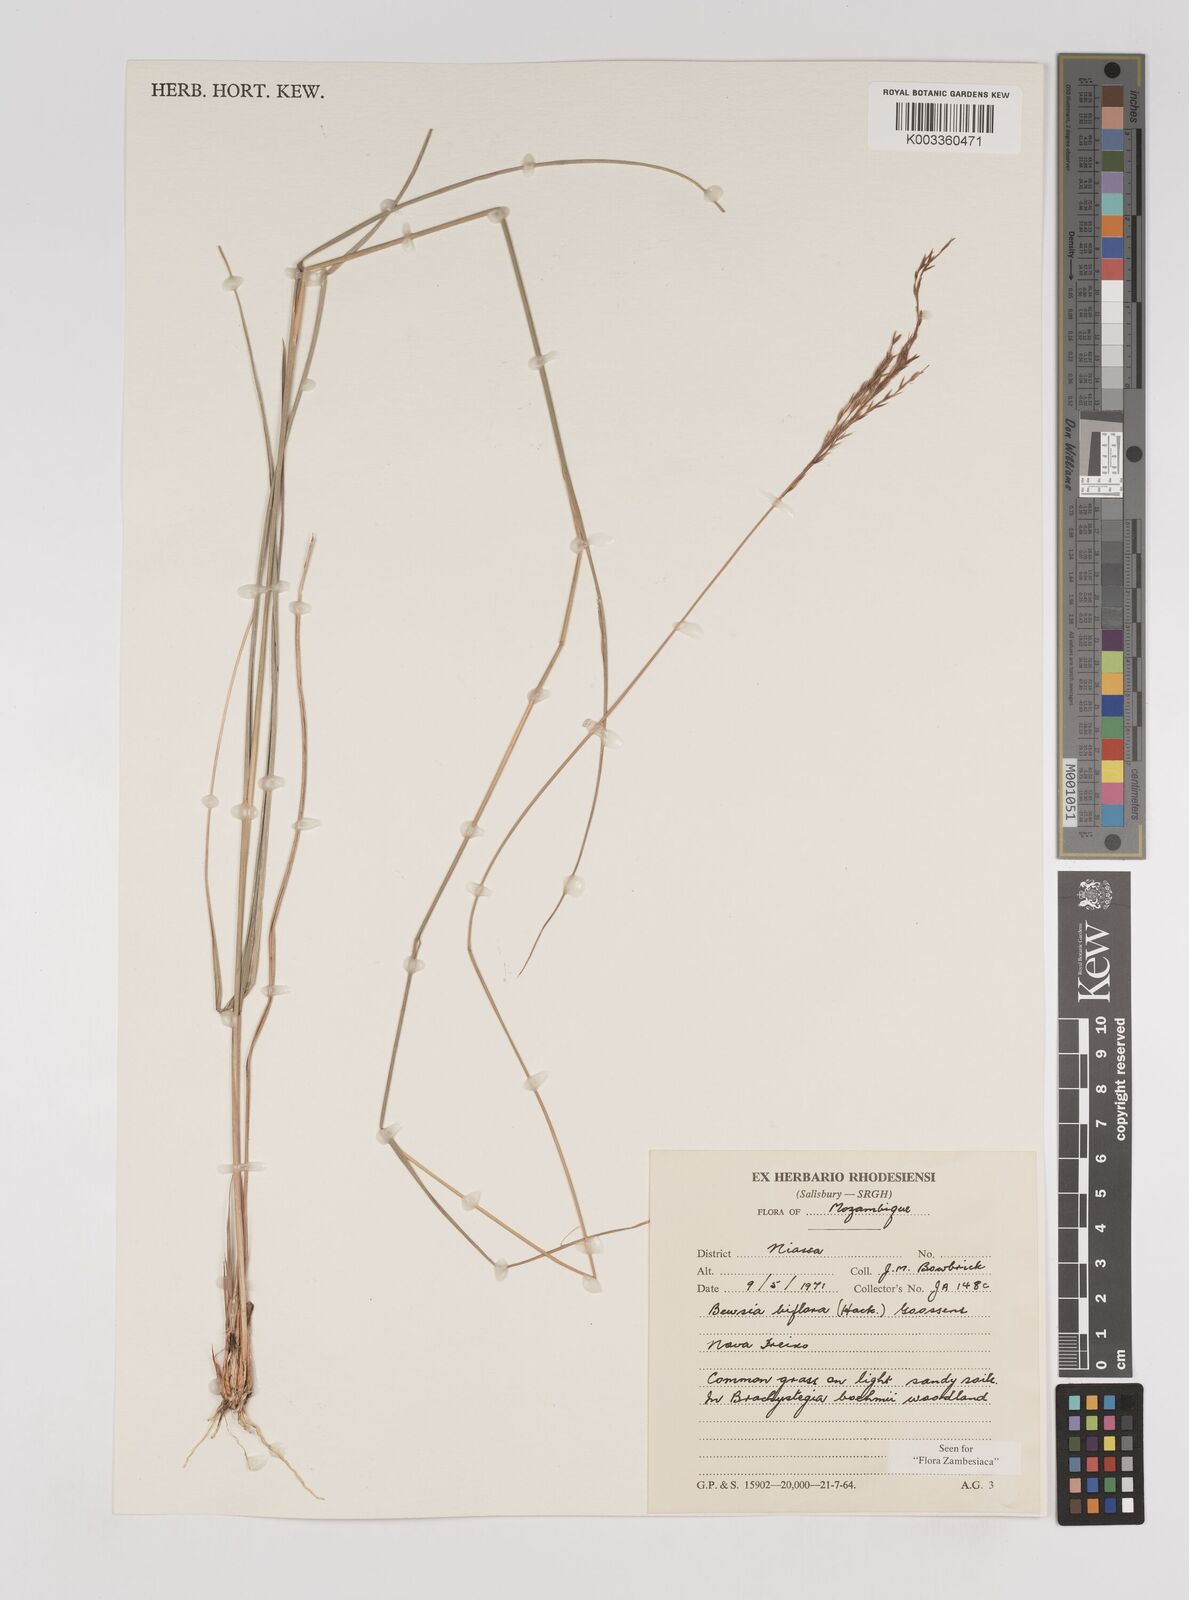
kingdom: Plantae
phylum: Tracheophyta
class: Liliopsida
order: Poales
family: Poaceae
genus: Bewsia
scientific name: Bewsia biflora
